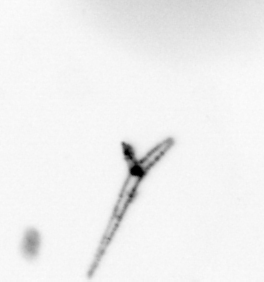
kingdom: Chromista
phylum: Ochrophyta
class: Bacillariophyceae
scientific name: Bacillariophyceae
